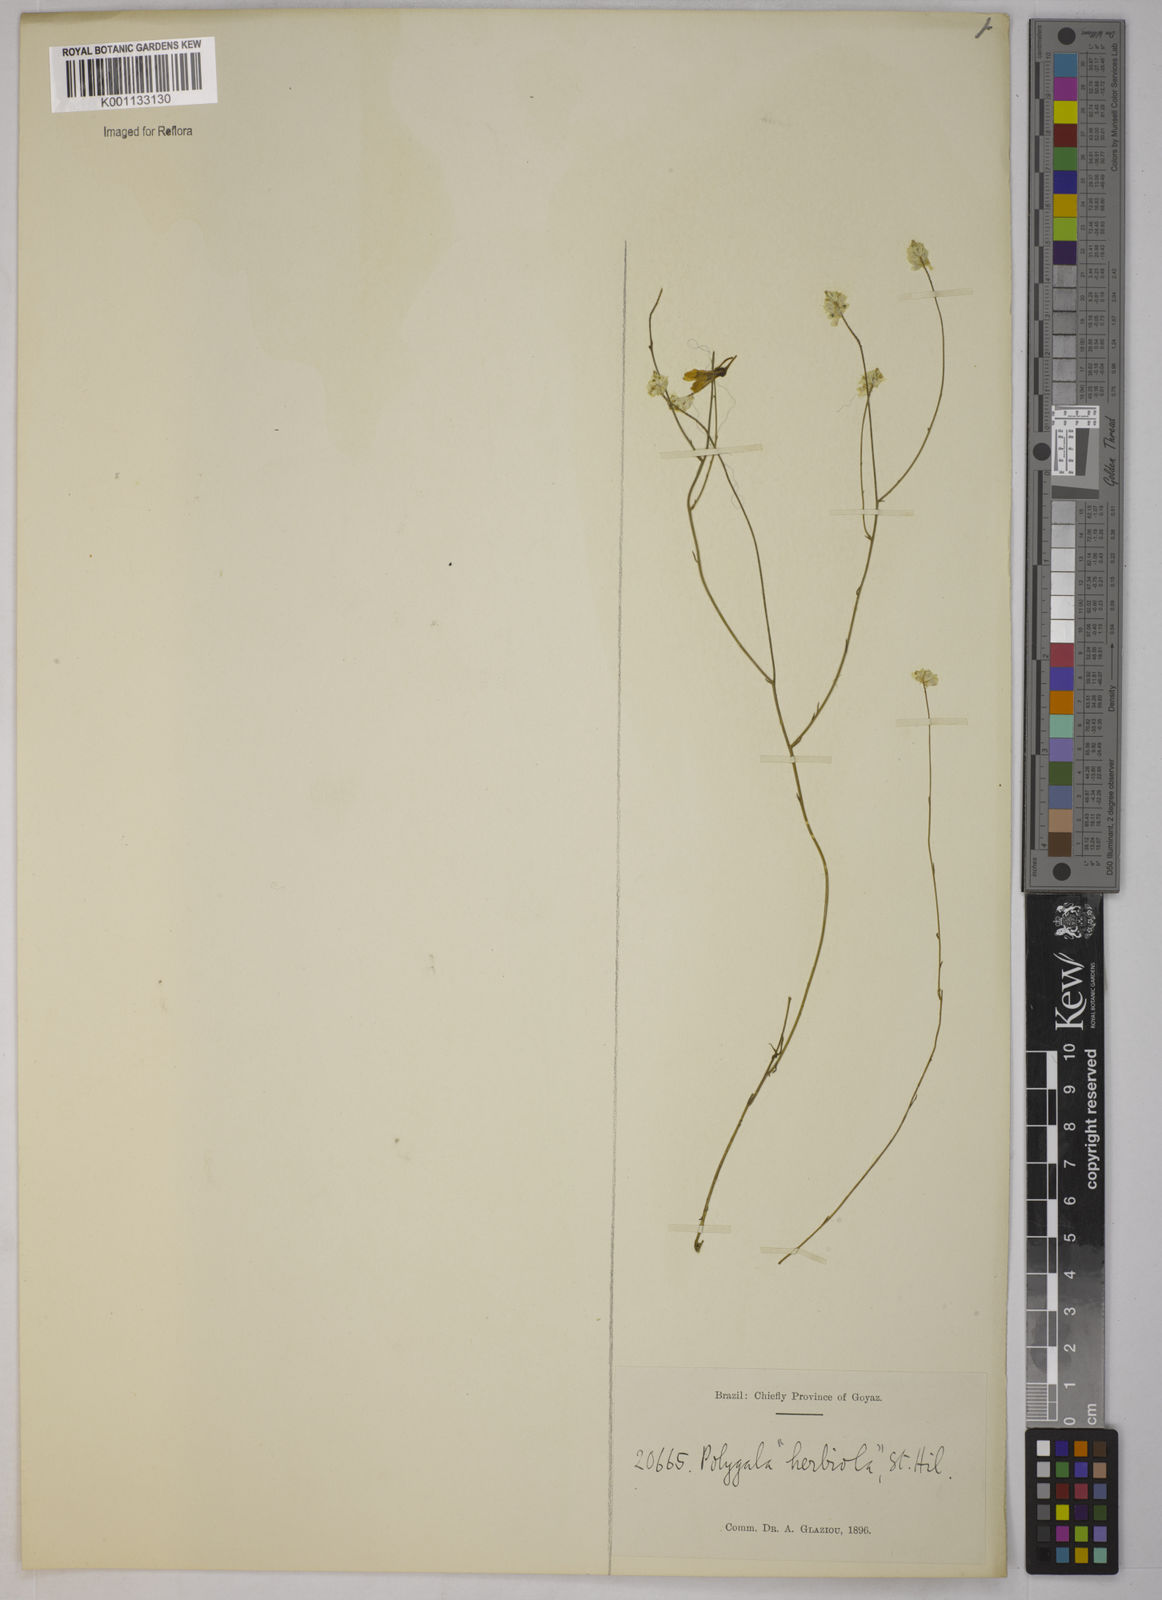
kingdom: Plantae
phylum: Tracheophyta
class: Magnoliopsida
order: Fabales
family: Polygalaceae
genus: Polygala
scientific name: Polygala herbiola
